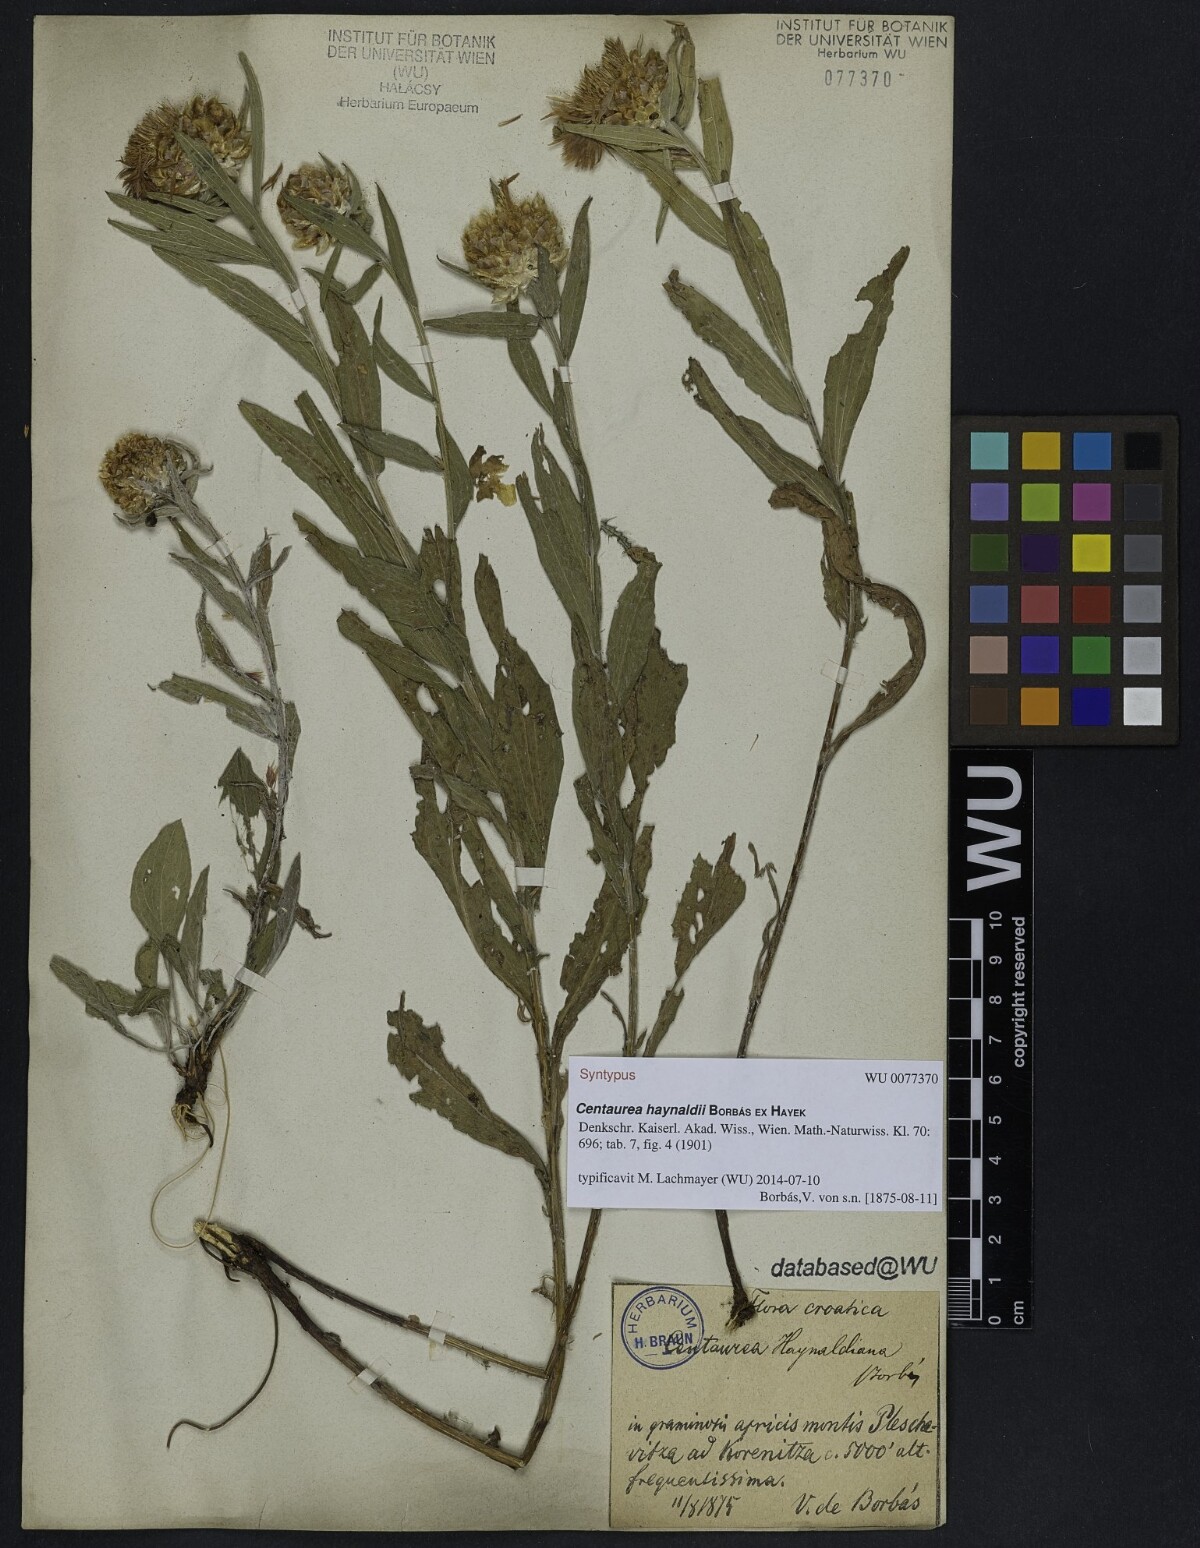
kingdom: Plantae
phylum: Tracheophyta
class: Magnoliopsida
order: Asterales
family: Asteraceae
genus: Centaurea
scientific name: Centaurea jacea
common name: Brown knapweed
